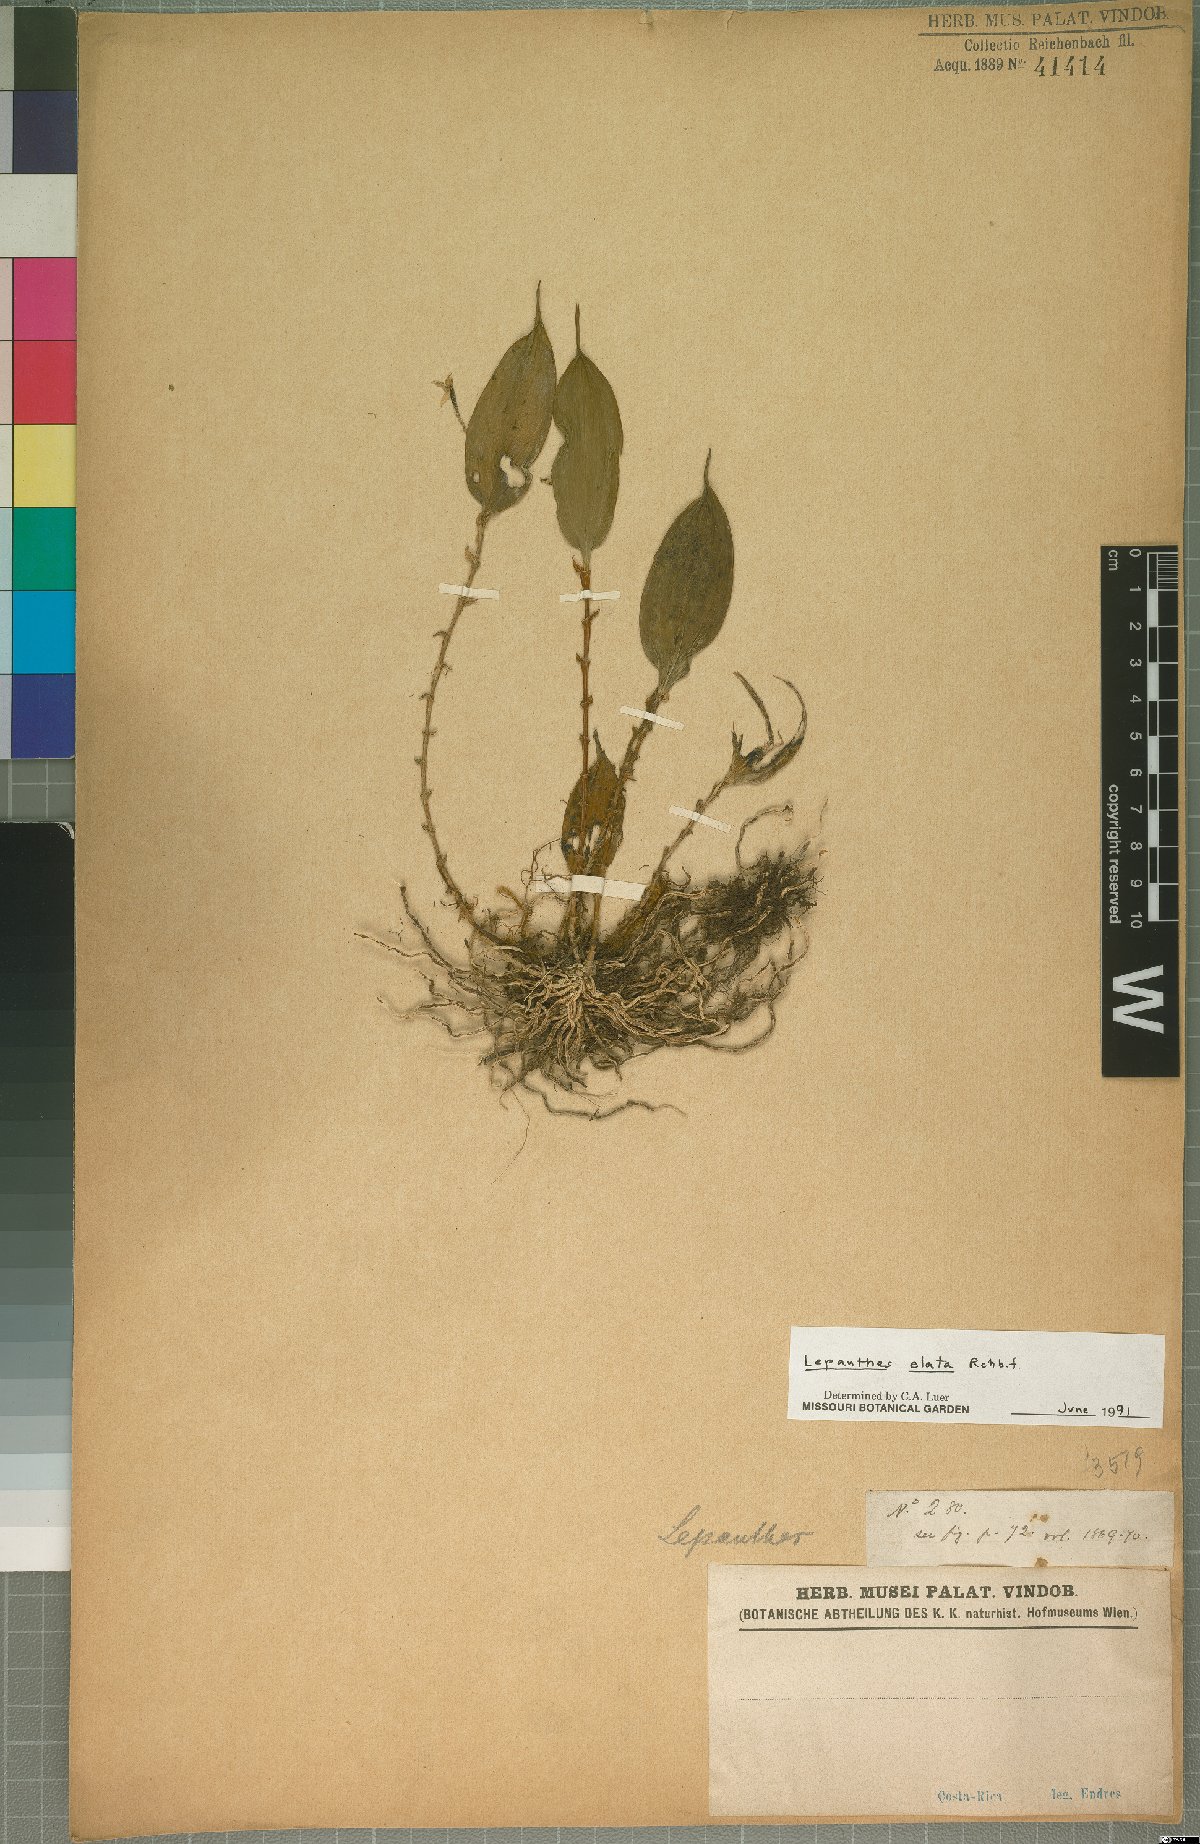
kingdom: Plantae
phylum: Tracheophyta
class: Liliopsida
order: Asparagales
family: Orchidaceae
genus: Lepanthes
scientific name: Lepanthes elata
